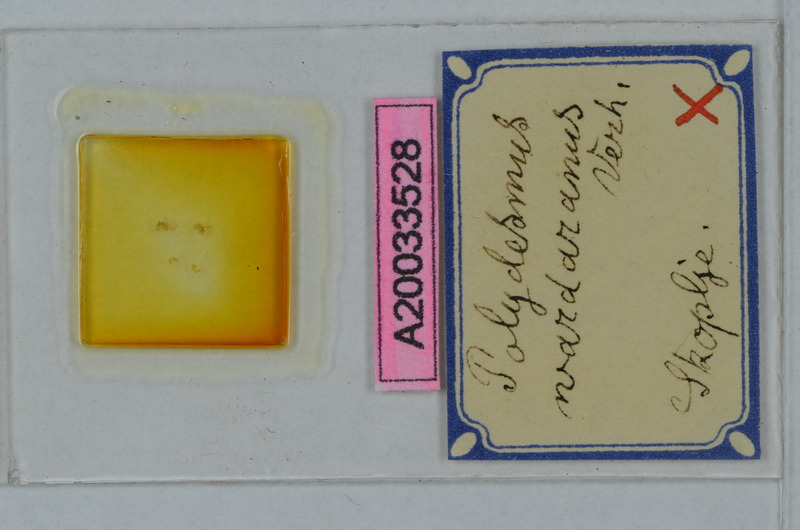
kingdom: Animalia
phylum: Arthropoda
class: Diplopoda
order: Polydesmida
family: Polydesmidae
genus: Polydesmus
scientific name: Polydesmus wardaranus
